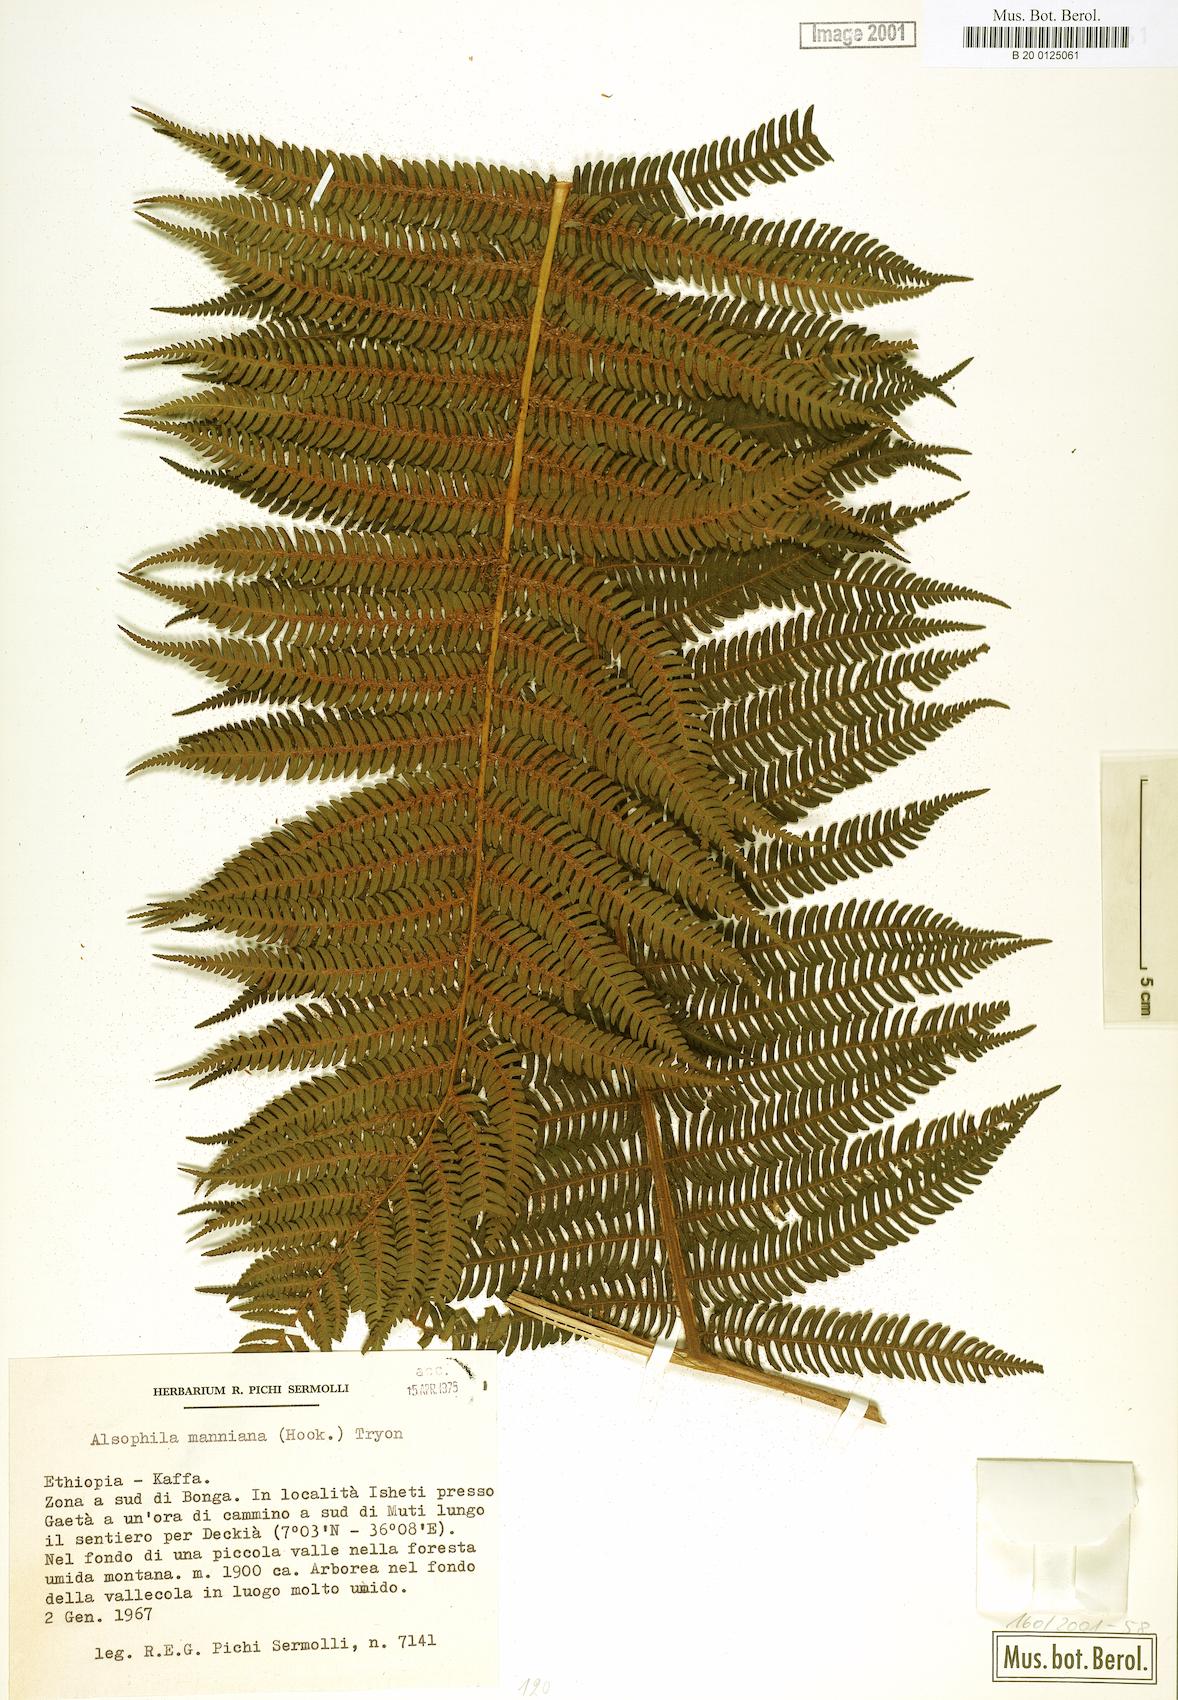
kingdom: Plantae
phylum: Tracheophyta
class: Polypodiopsida
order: Cyatheales
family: Cyatheaceae
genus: Alsophila
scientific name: Alsophila manniana
